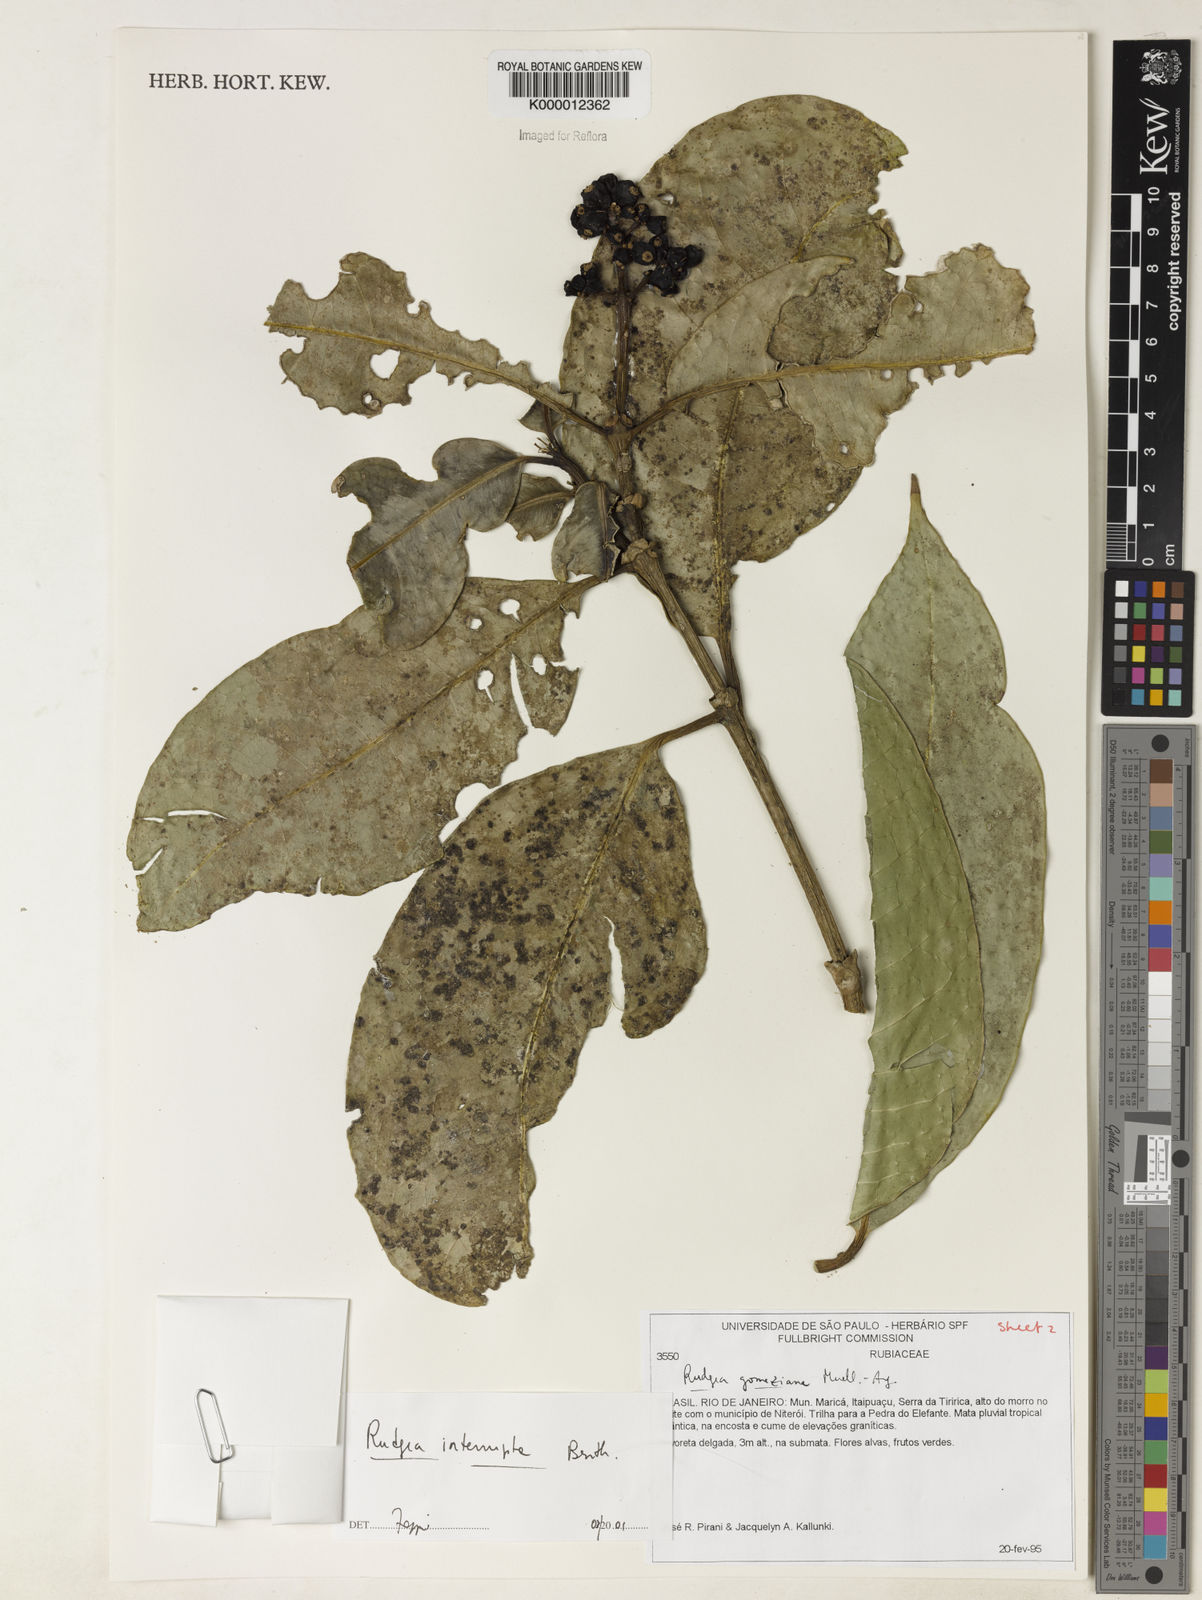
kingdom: Plantae
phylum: Tracheophyta
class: Magnoliopsida
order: Gentianales
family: Rubiaceae
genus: Rudgea
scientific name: Rudgea interrupta
